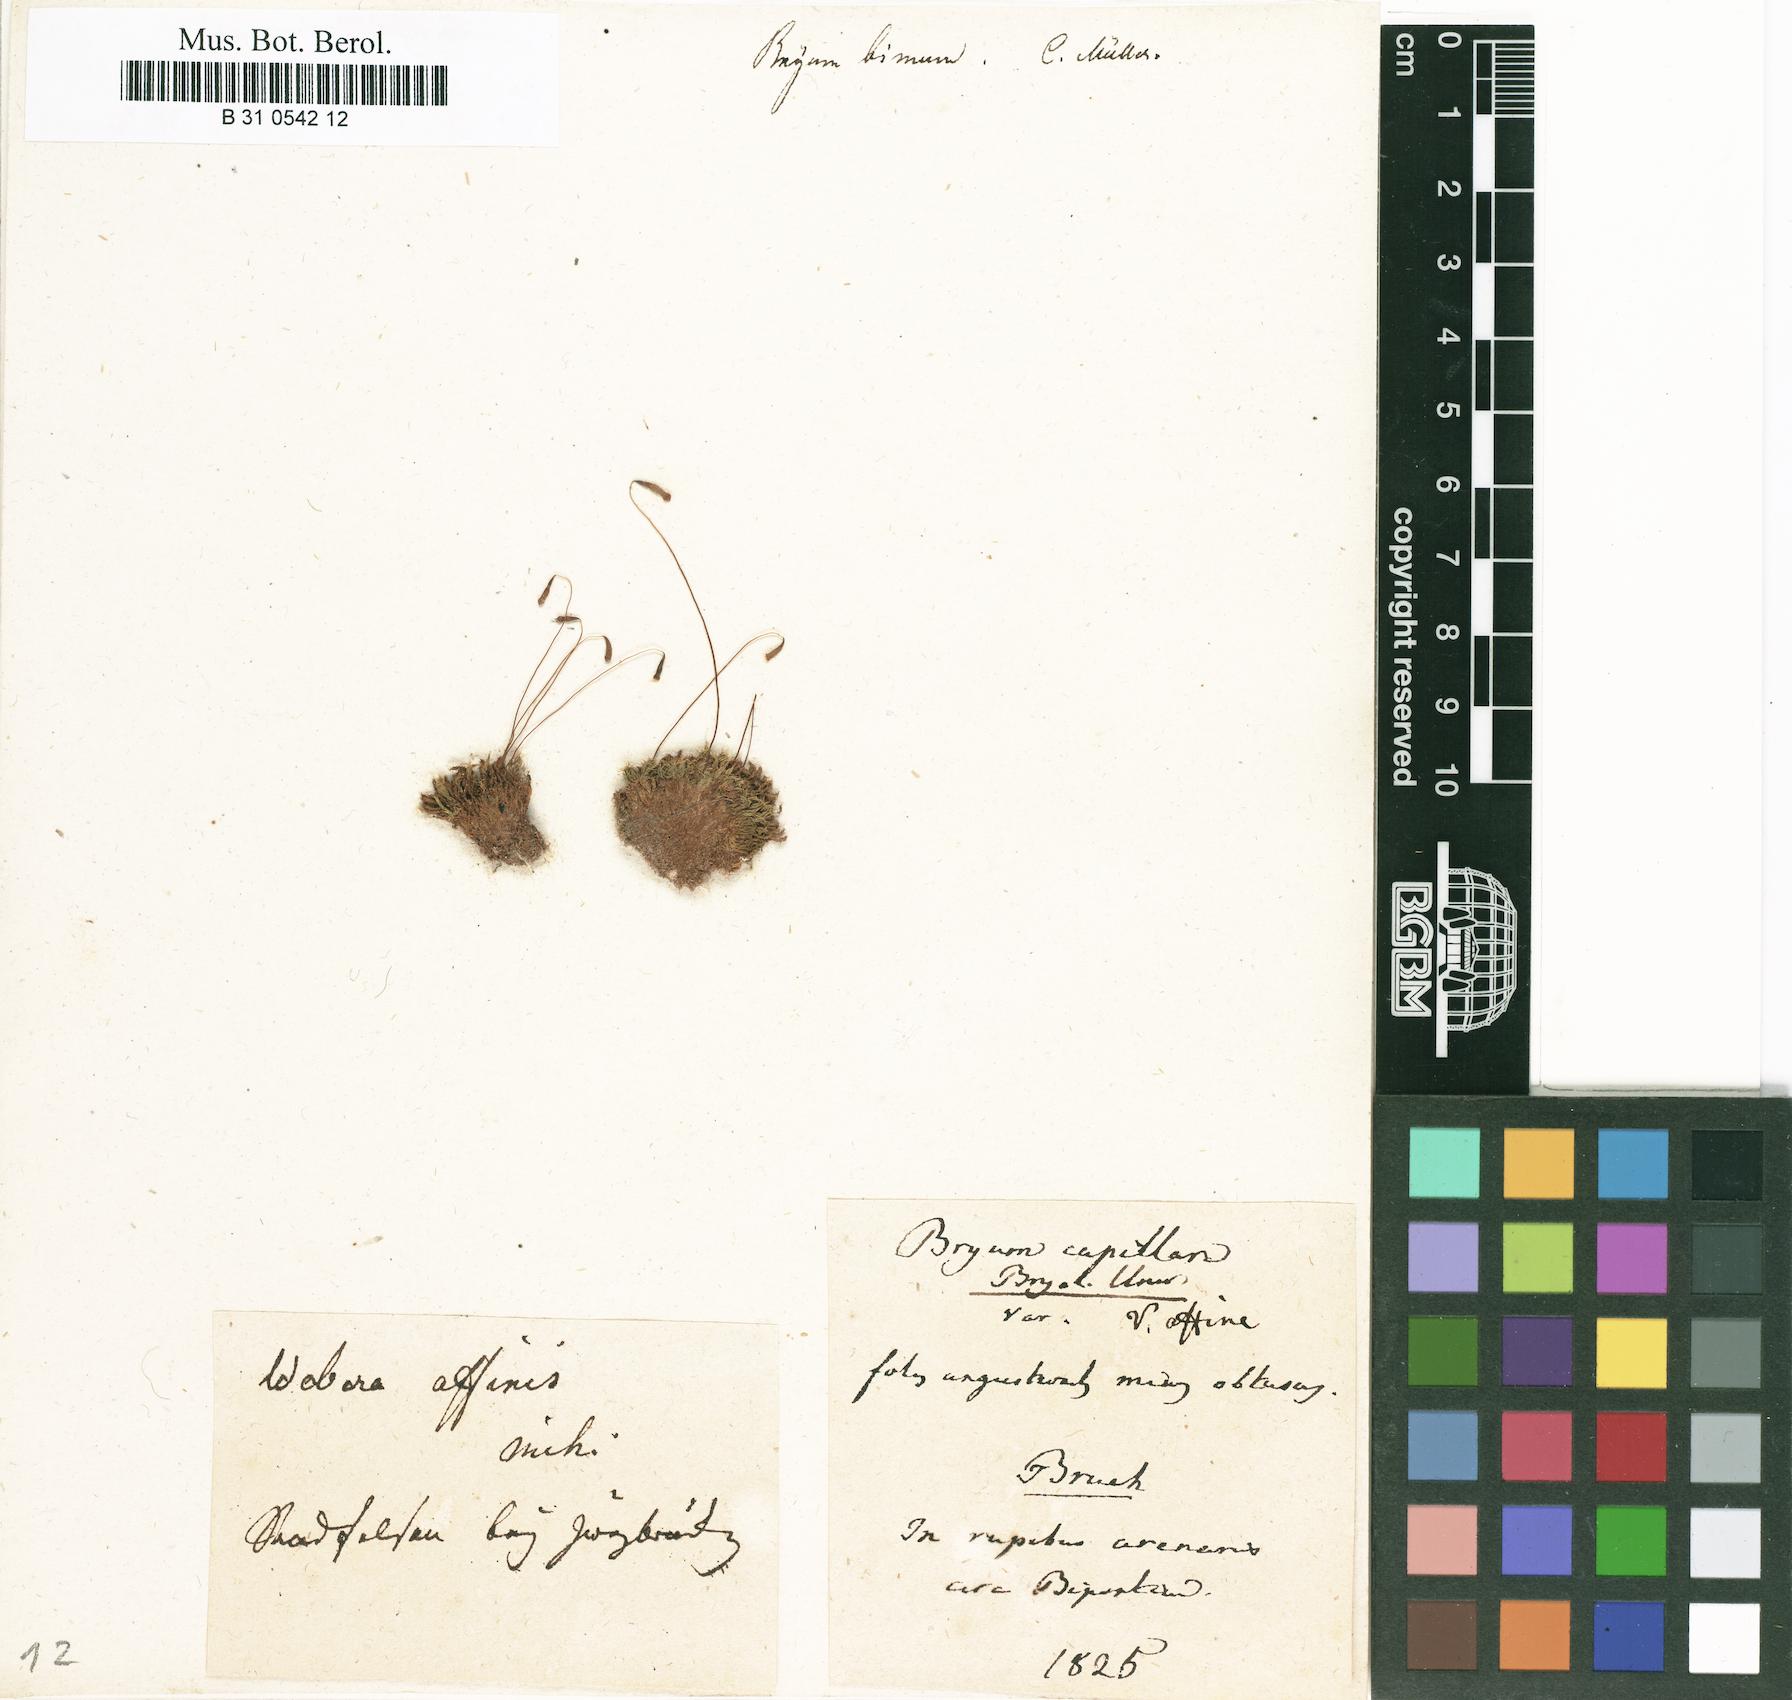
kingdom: Plantae
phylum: Bryophyta
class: Bryopsida
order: Bryales
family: Bryaceae
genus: Rosulabryum
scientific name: Rosulabryum capillare
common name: Capillary thread-moss
